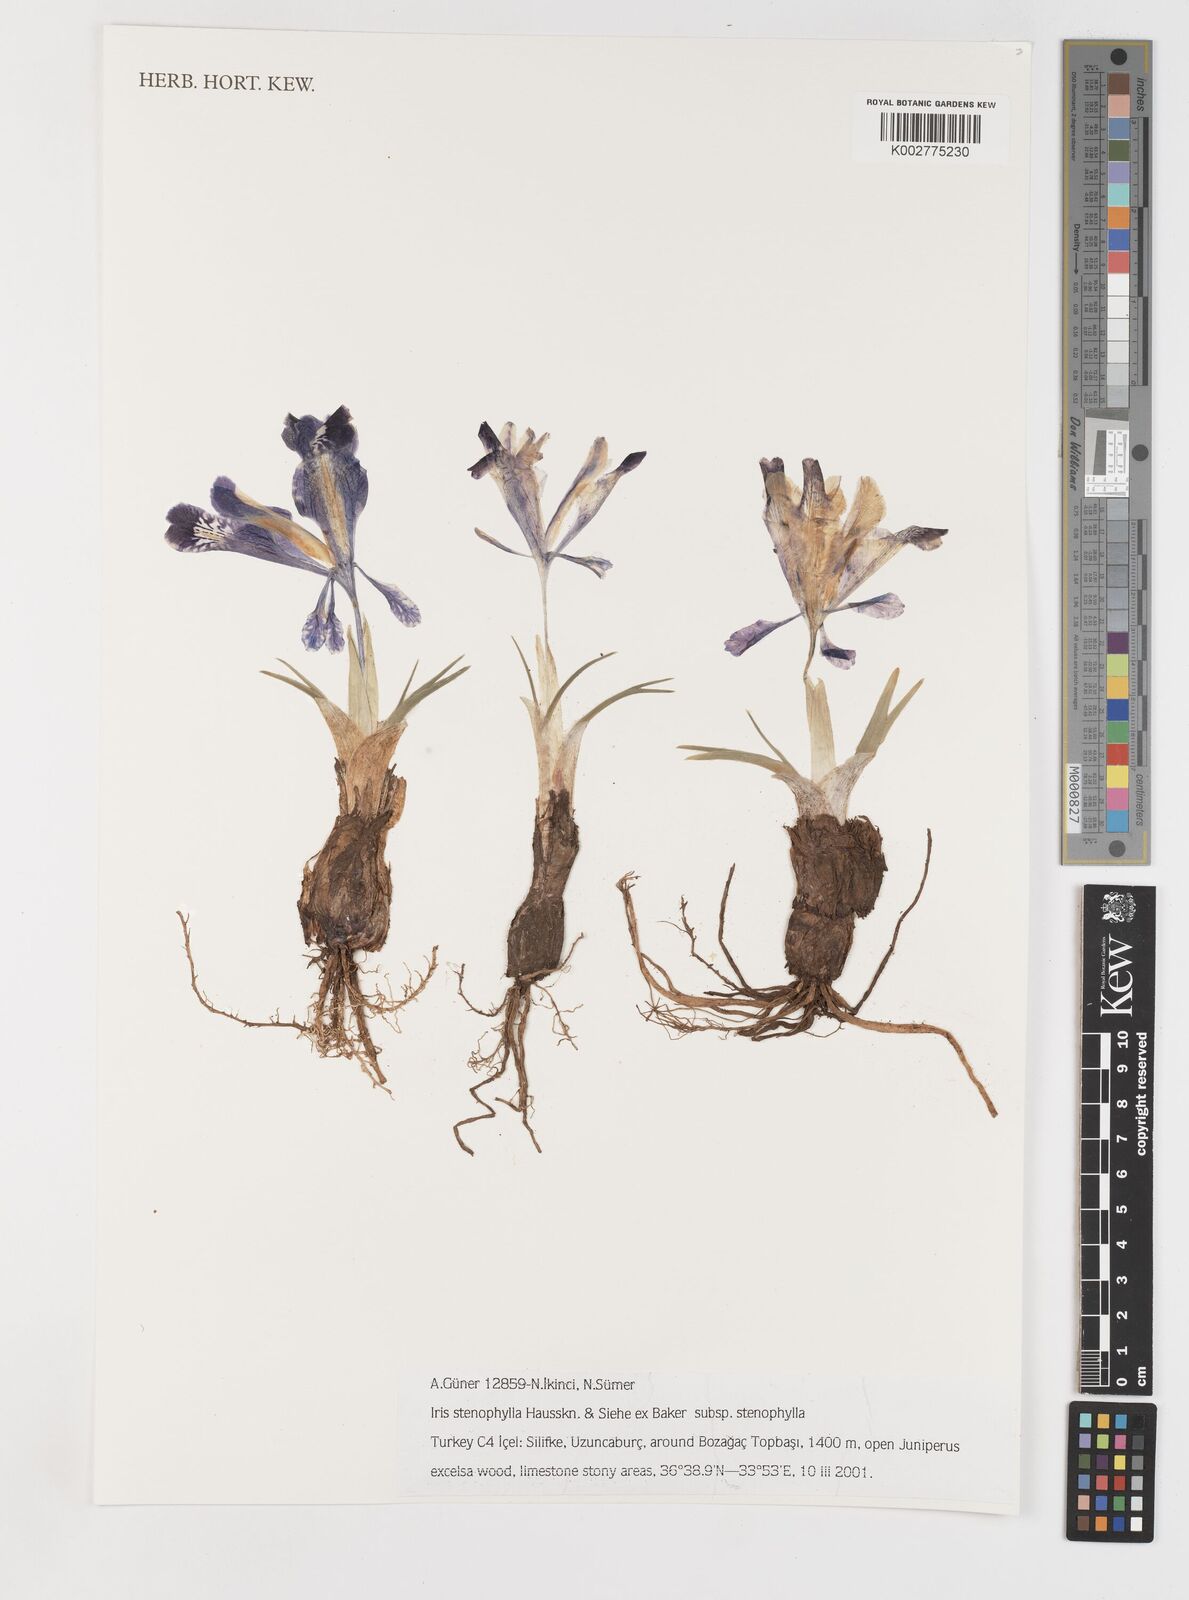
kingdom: Plantae
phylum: Tracheophyta
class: Liliopsida
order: Asparagales
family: Iridaceae
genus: Iris
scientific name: Iris stenophylla
